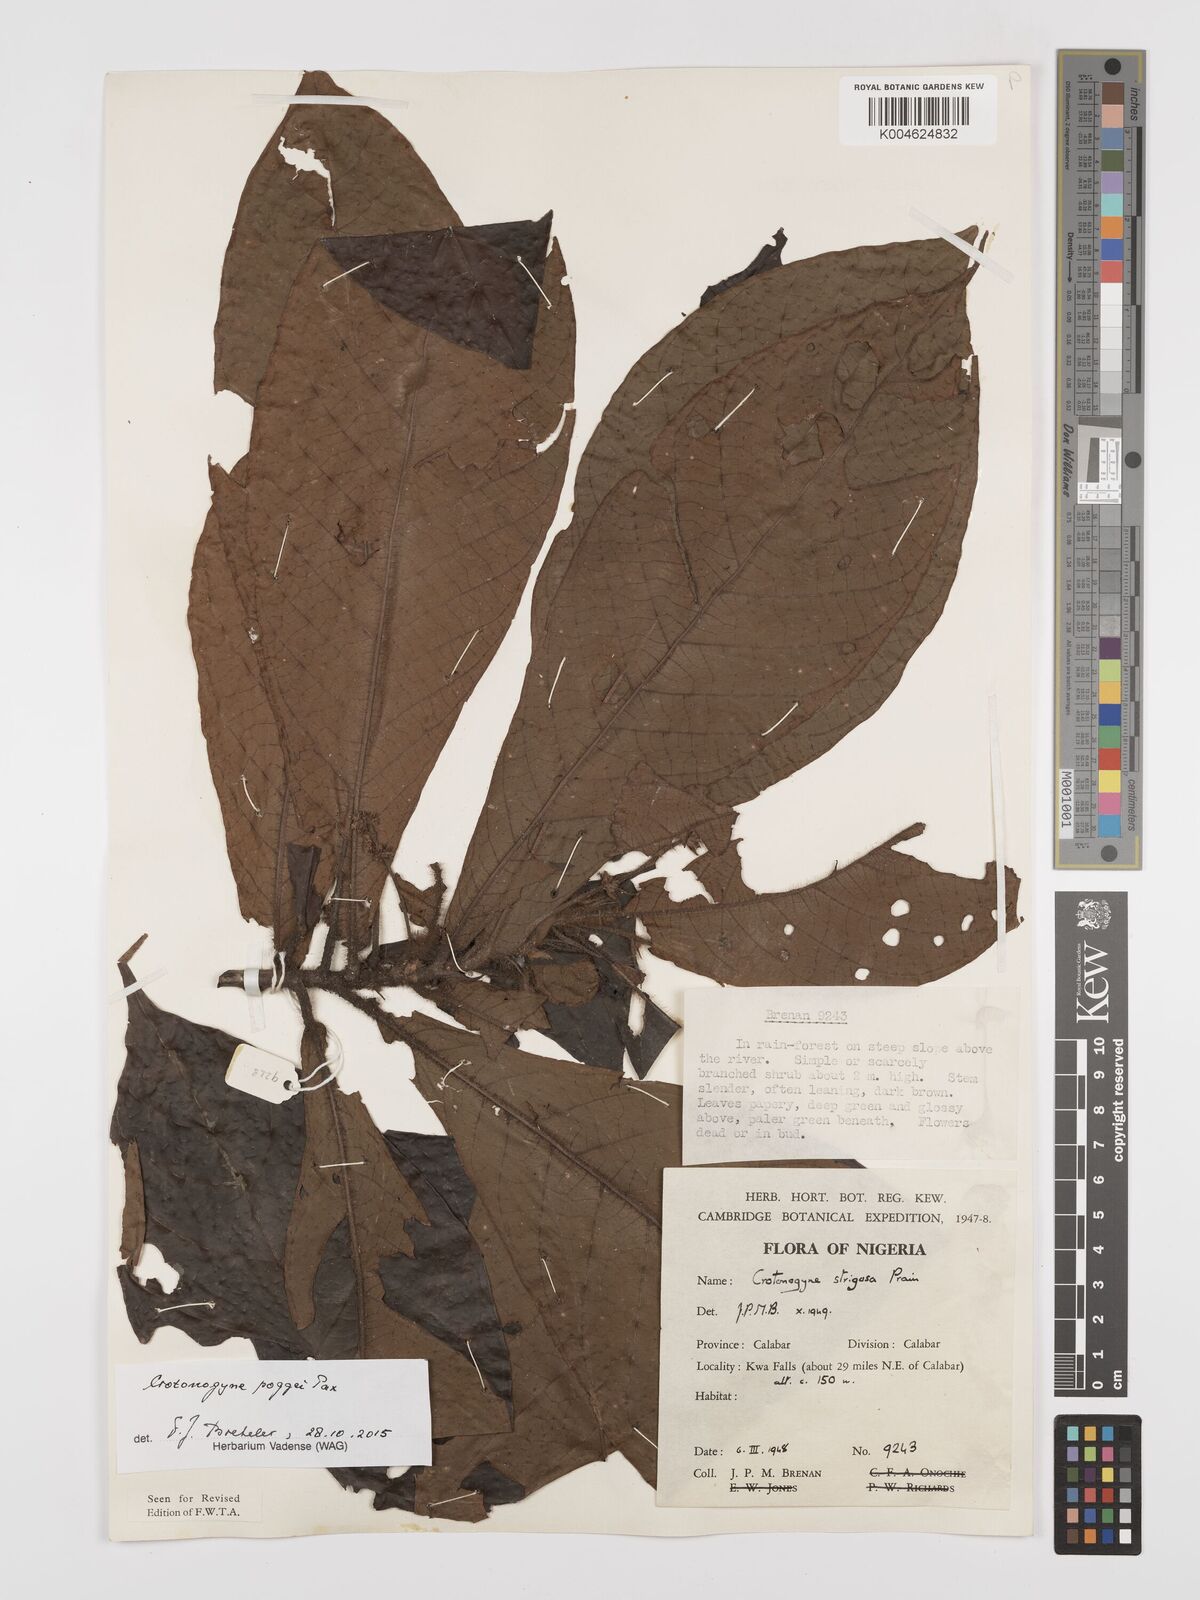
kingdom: Plantae
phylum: Tracheophyta
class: Magnoliopsida
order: Malpighiales
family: Euphorbiaceae
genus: Crotonogyne
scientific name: Crotonogyne poggei
